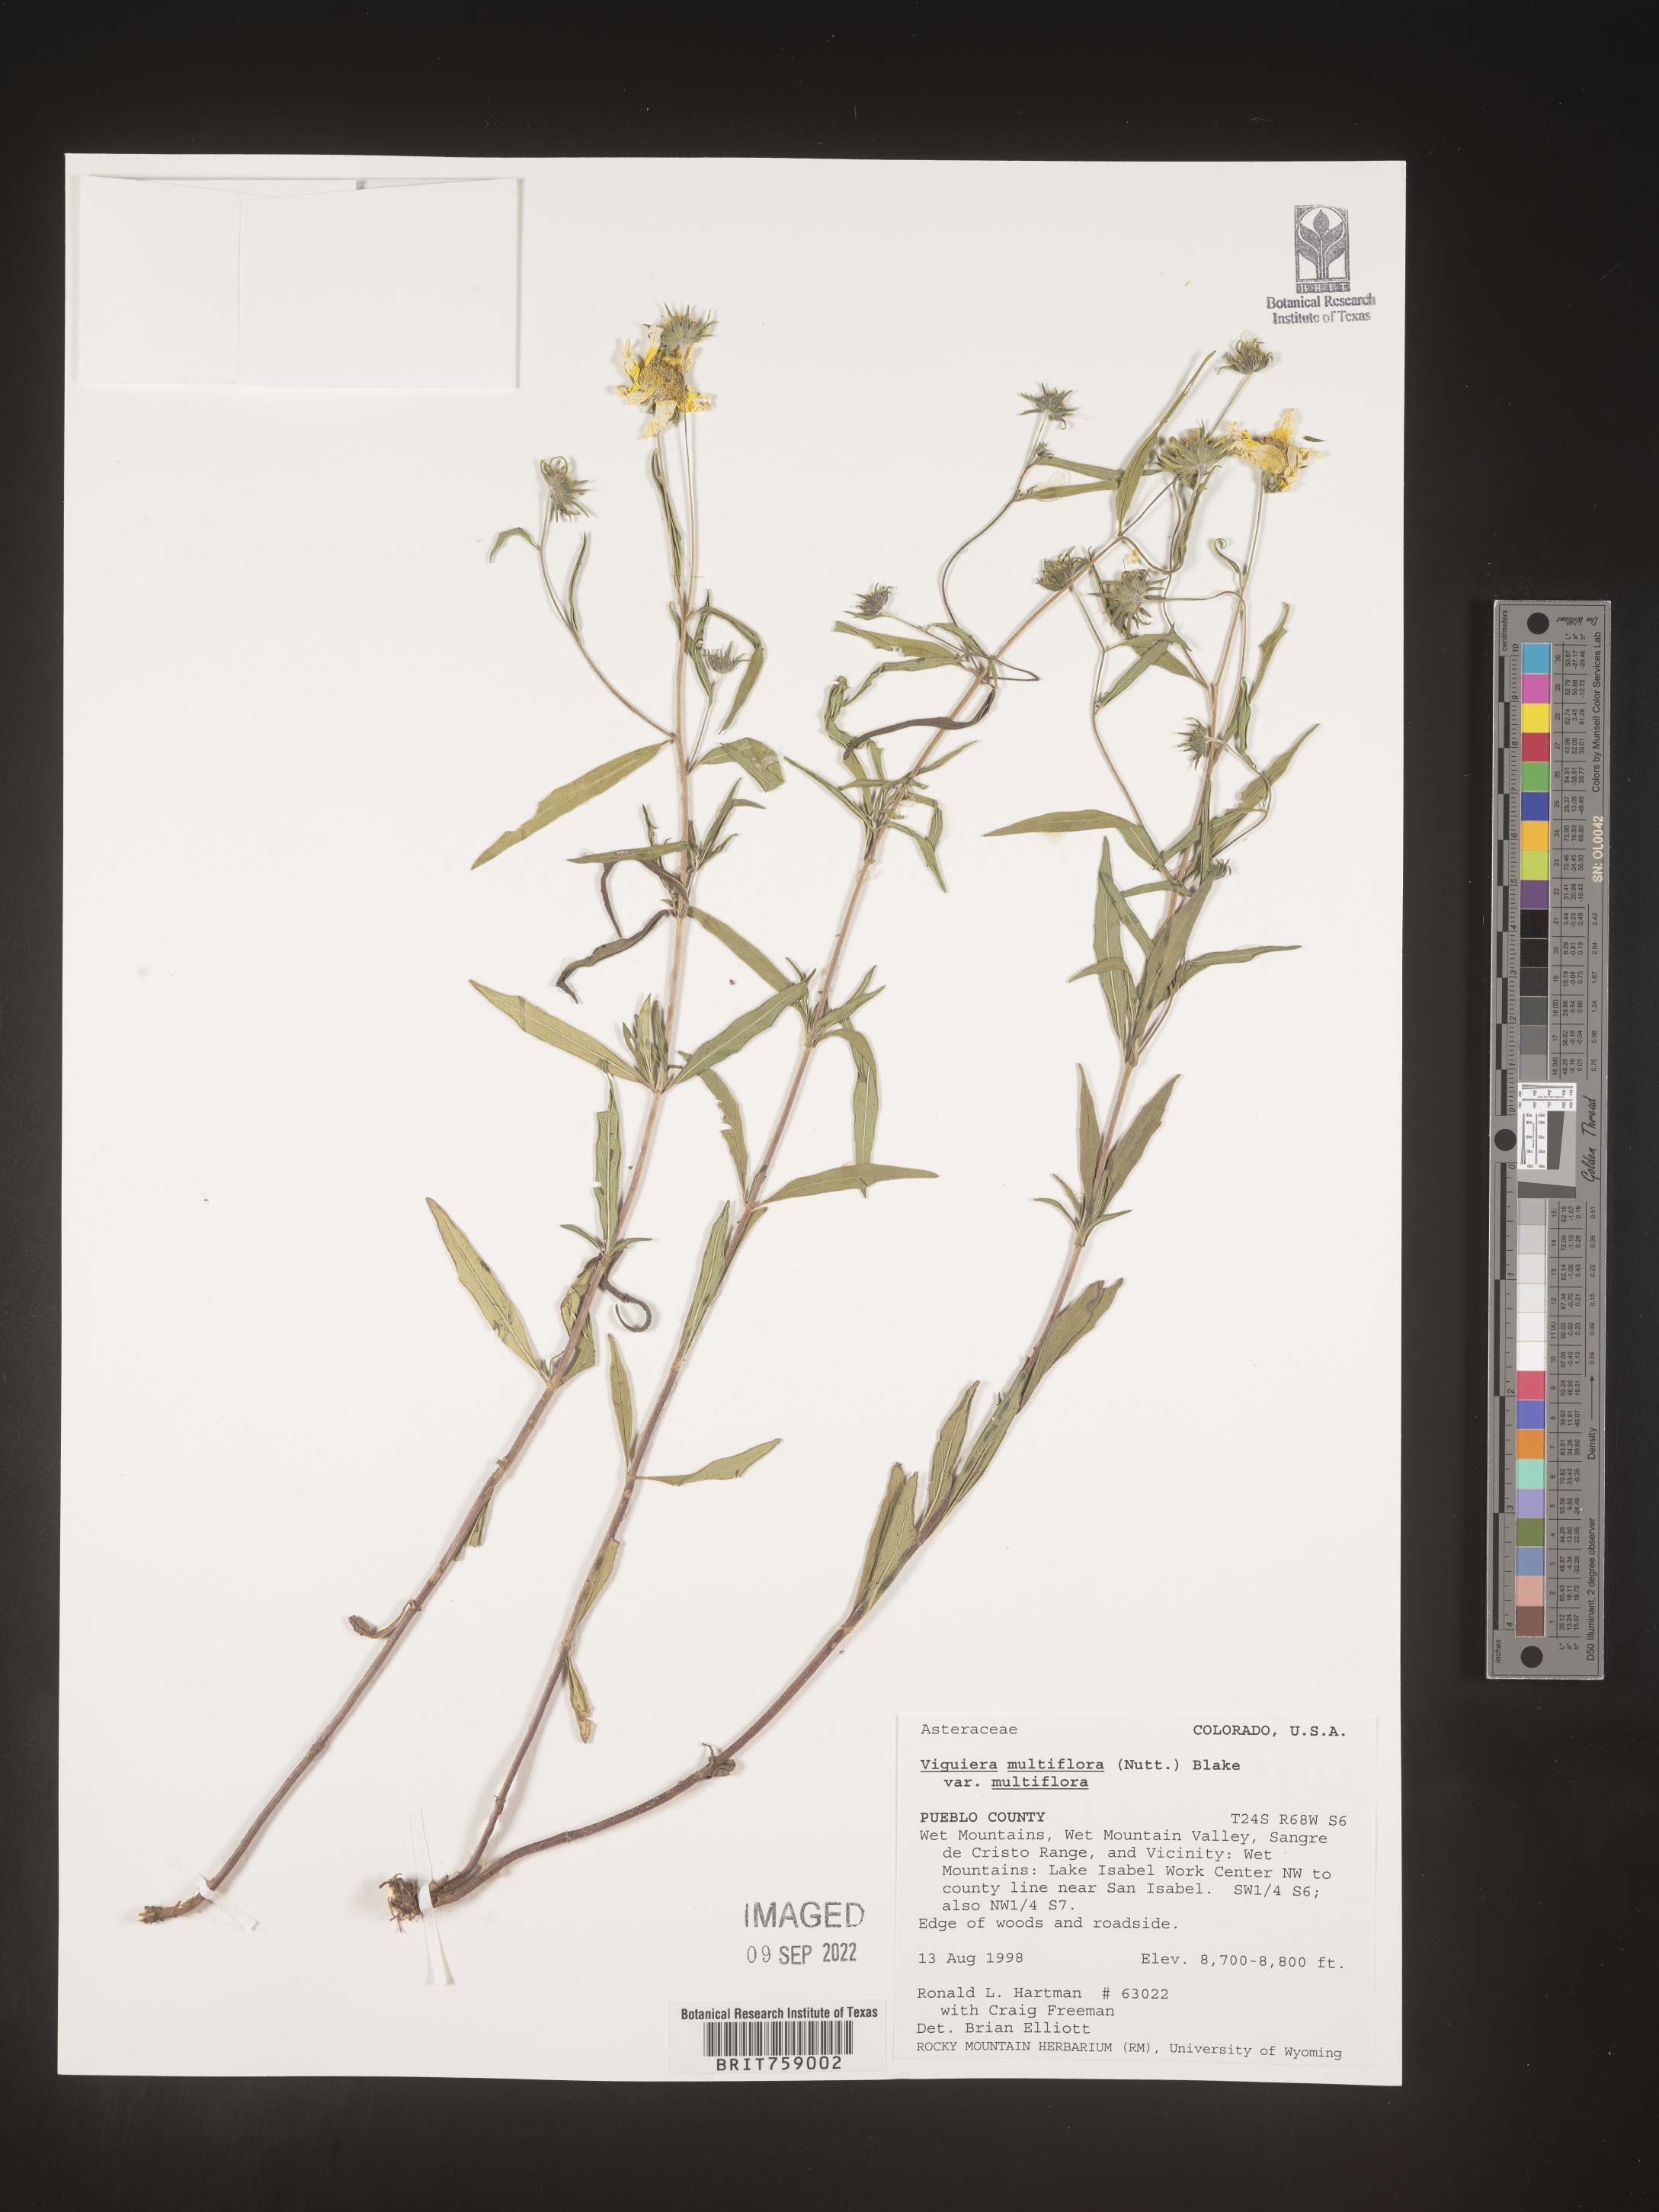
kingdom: Plantae
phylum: Tracheophyta
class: Magnoliopsida
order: Asterales
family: Asteraceae
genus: Viguiera
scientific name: Viguiera
